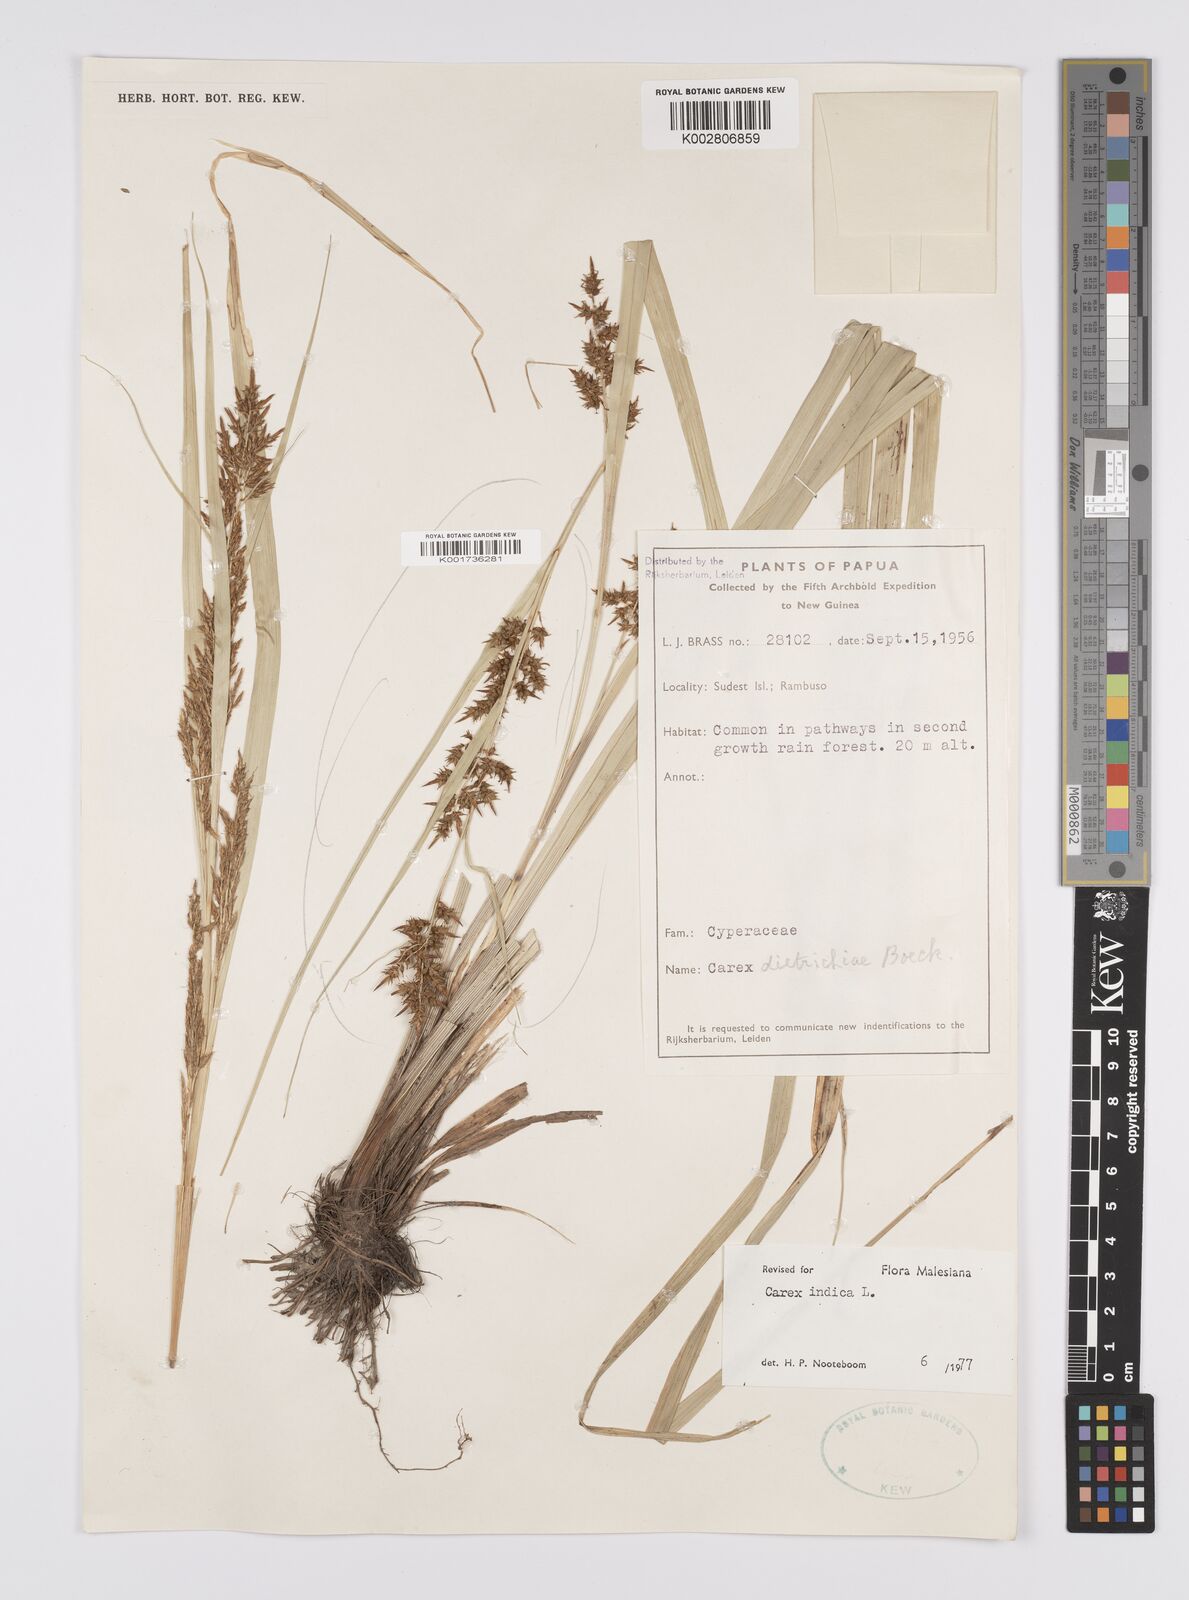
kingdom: Plantae
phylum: Tracheophyta
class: Liliopsida
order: Poales
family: Cyperaceae
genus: Carex
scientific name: Carex indica
